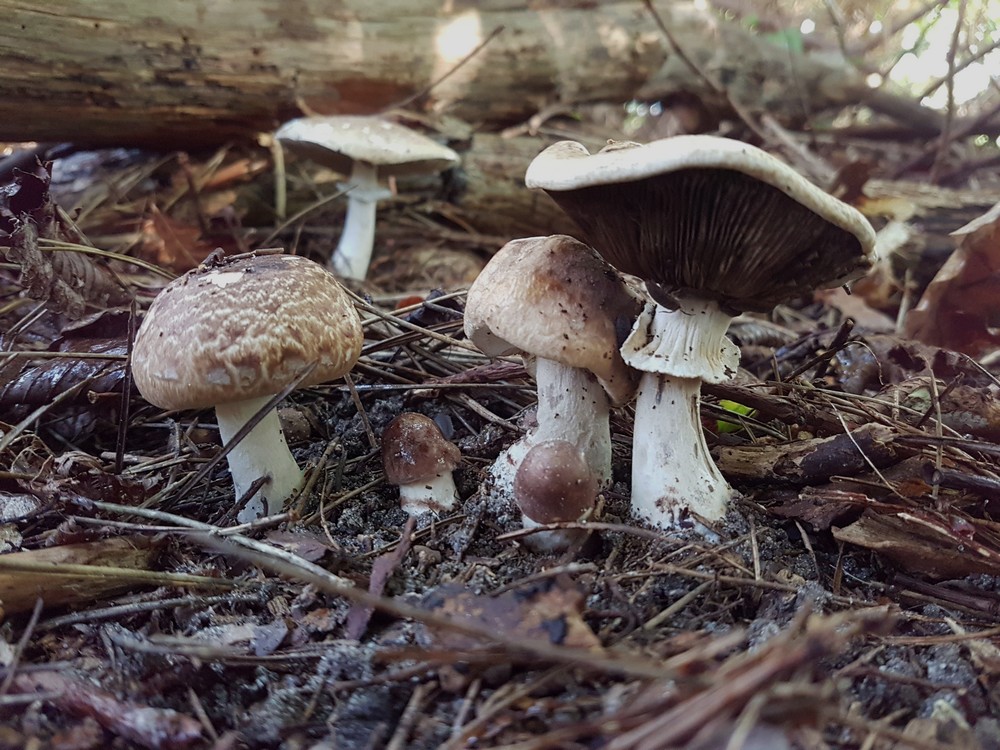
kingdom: Fungi
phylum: Basidiomycota
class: Agaricomycetes
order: Agaricales
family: Agaricaceae
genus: Agaricus
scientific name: Agaricus impudicus
